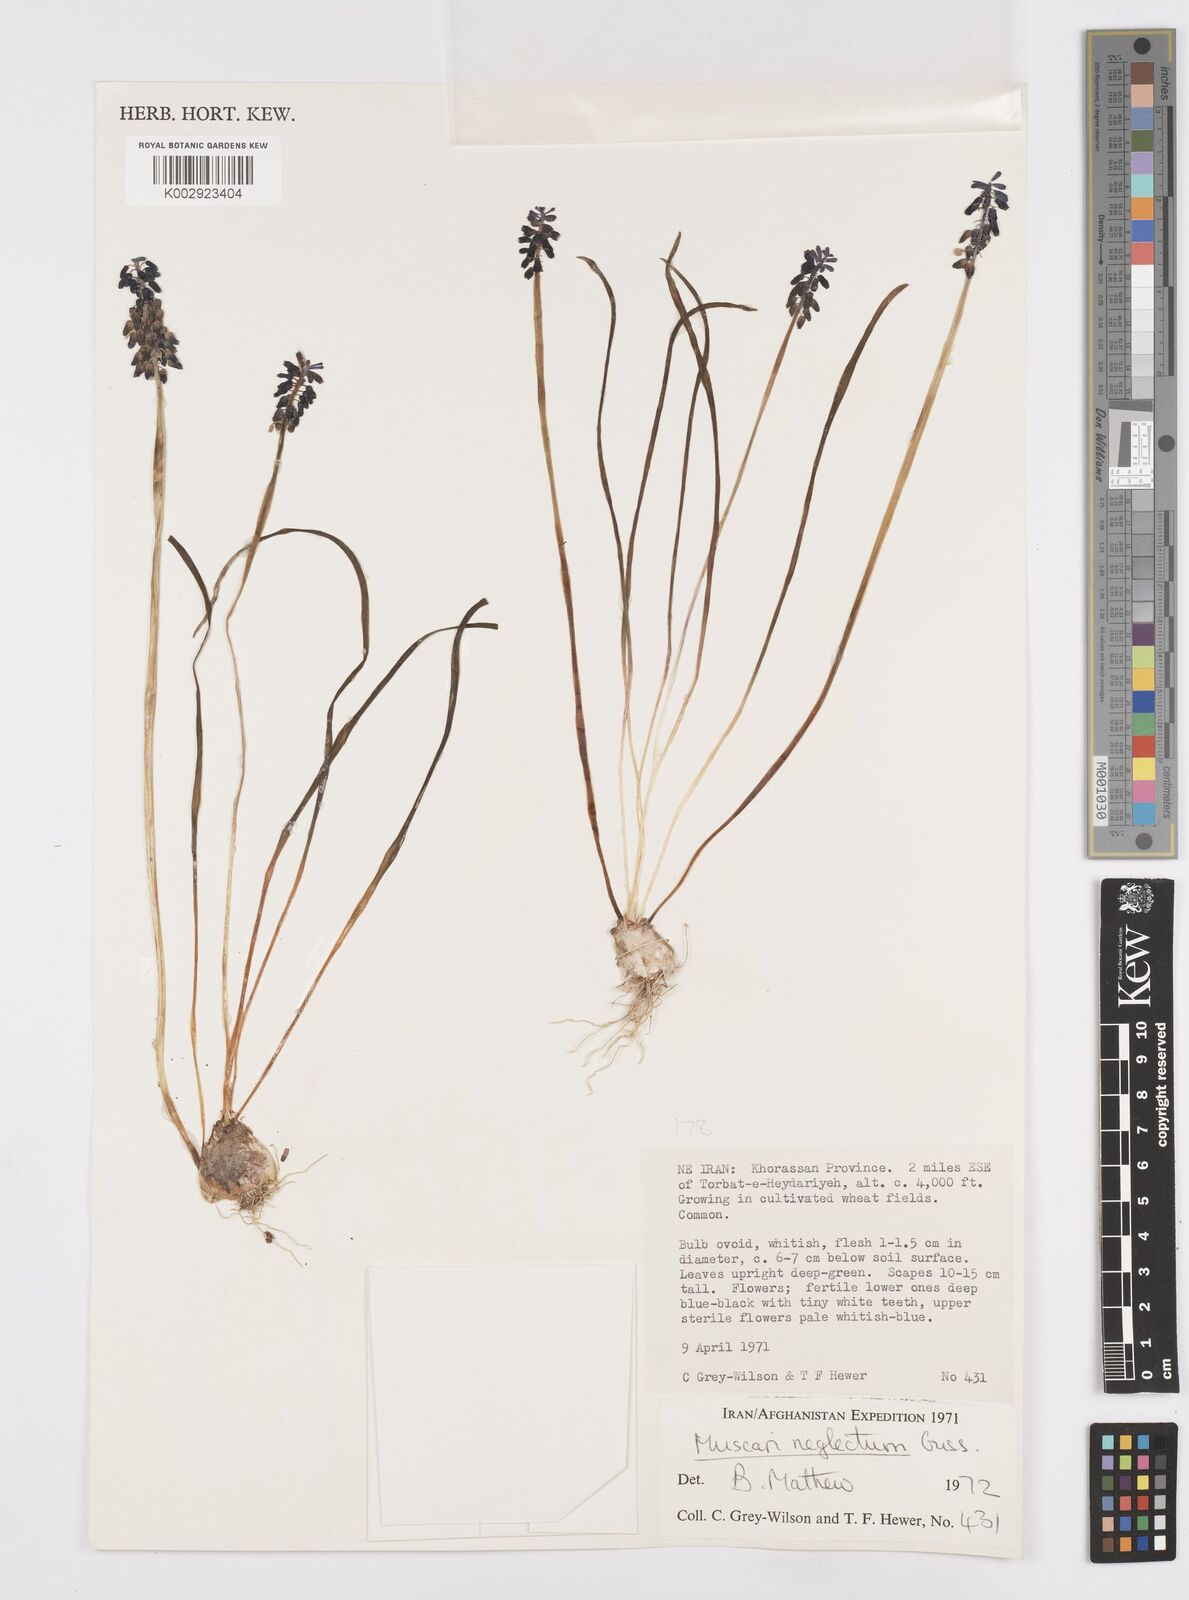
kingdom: Plantae
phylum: Tracheophyta
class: Liliopsida
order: Asparagales
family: Asparagaceae
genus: Muscari
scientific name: Muscari neglectum
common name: Grape-hyacinth
